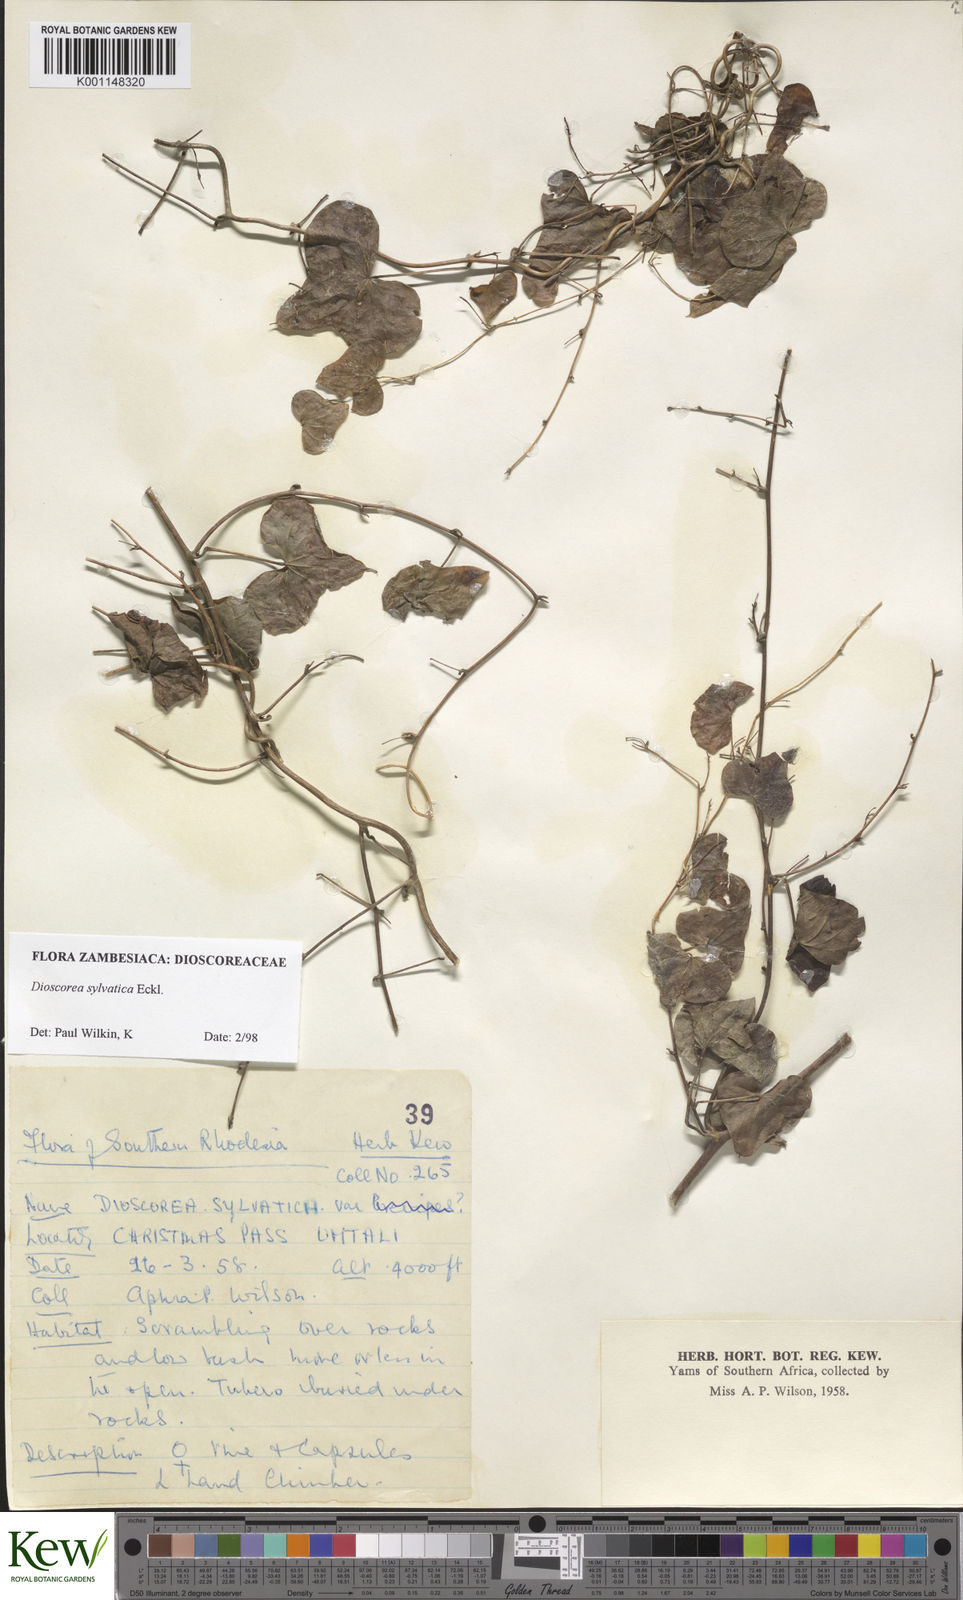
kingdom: Plantae
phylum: Tracheophyta
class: Liliopsida
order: Dioscoreales
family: Dioscoreaceae
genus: Dioscorea
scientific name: Dioscorea sylvatica
